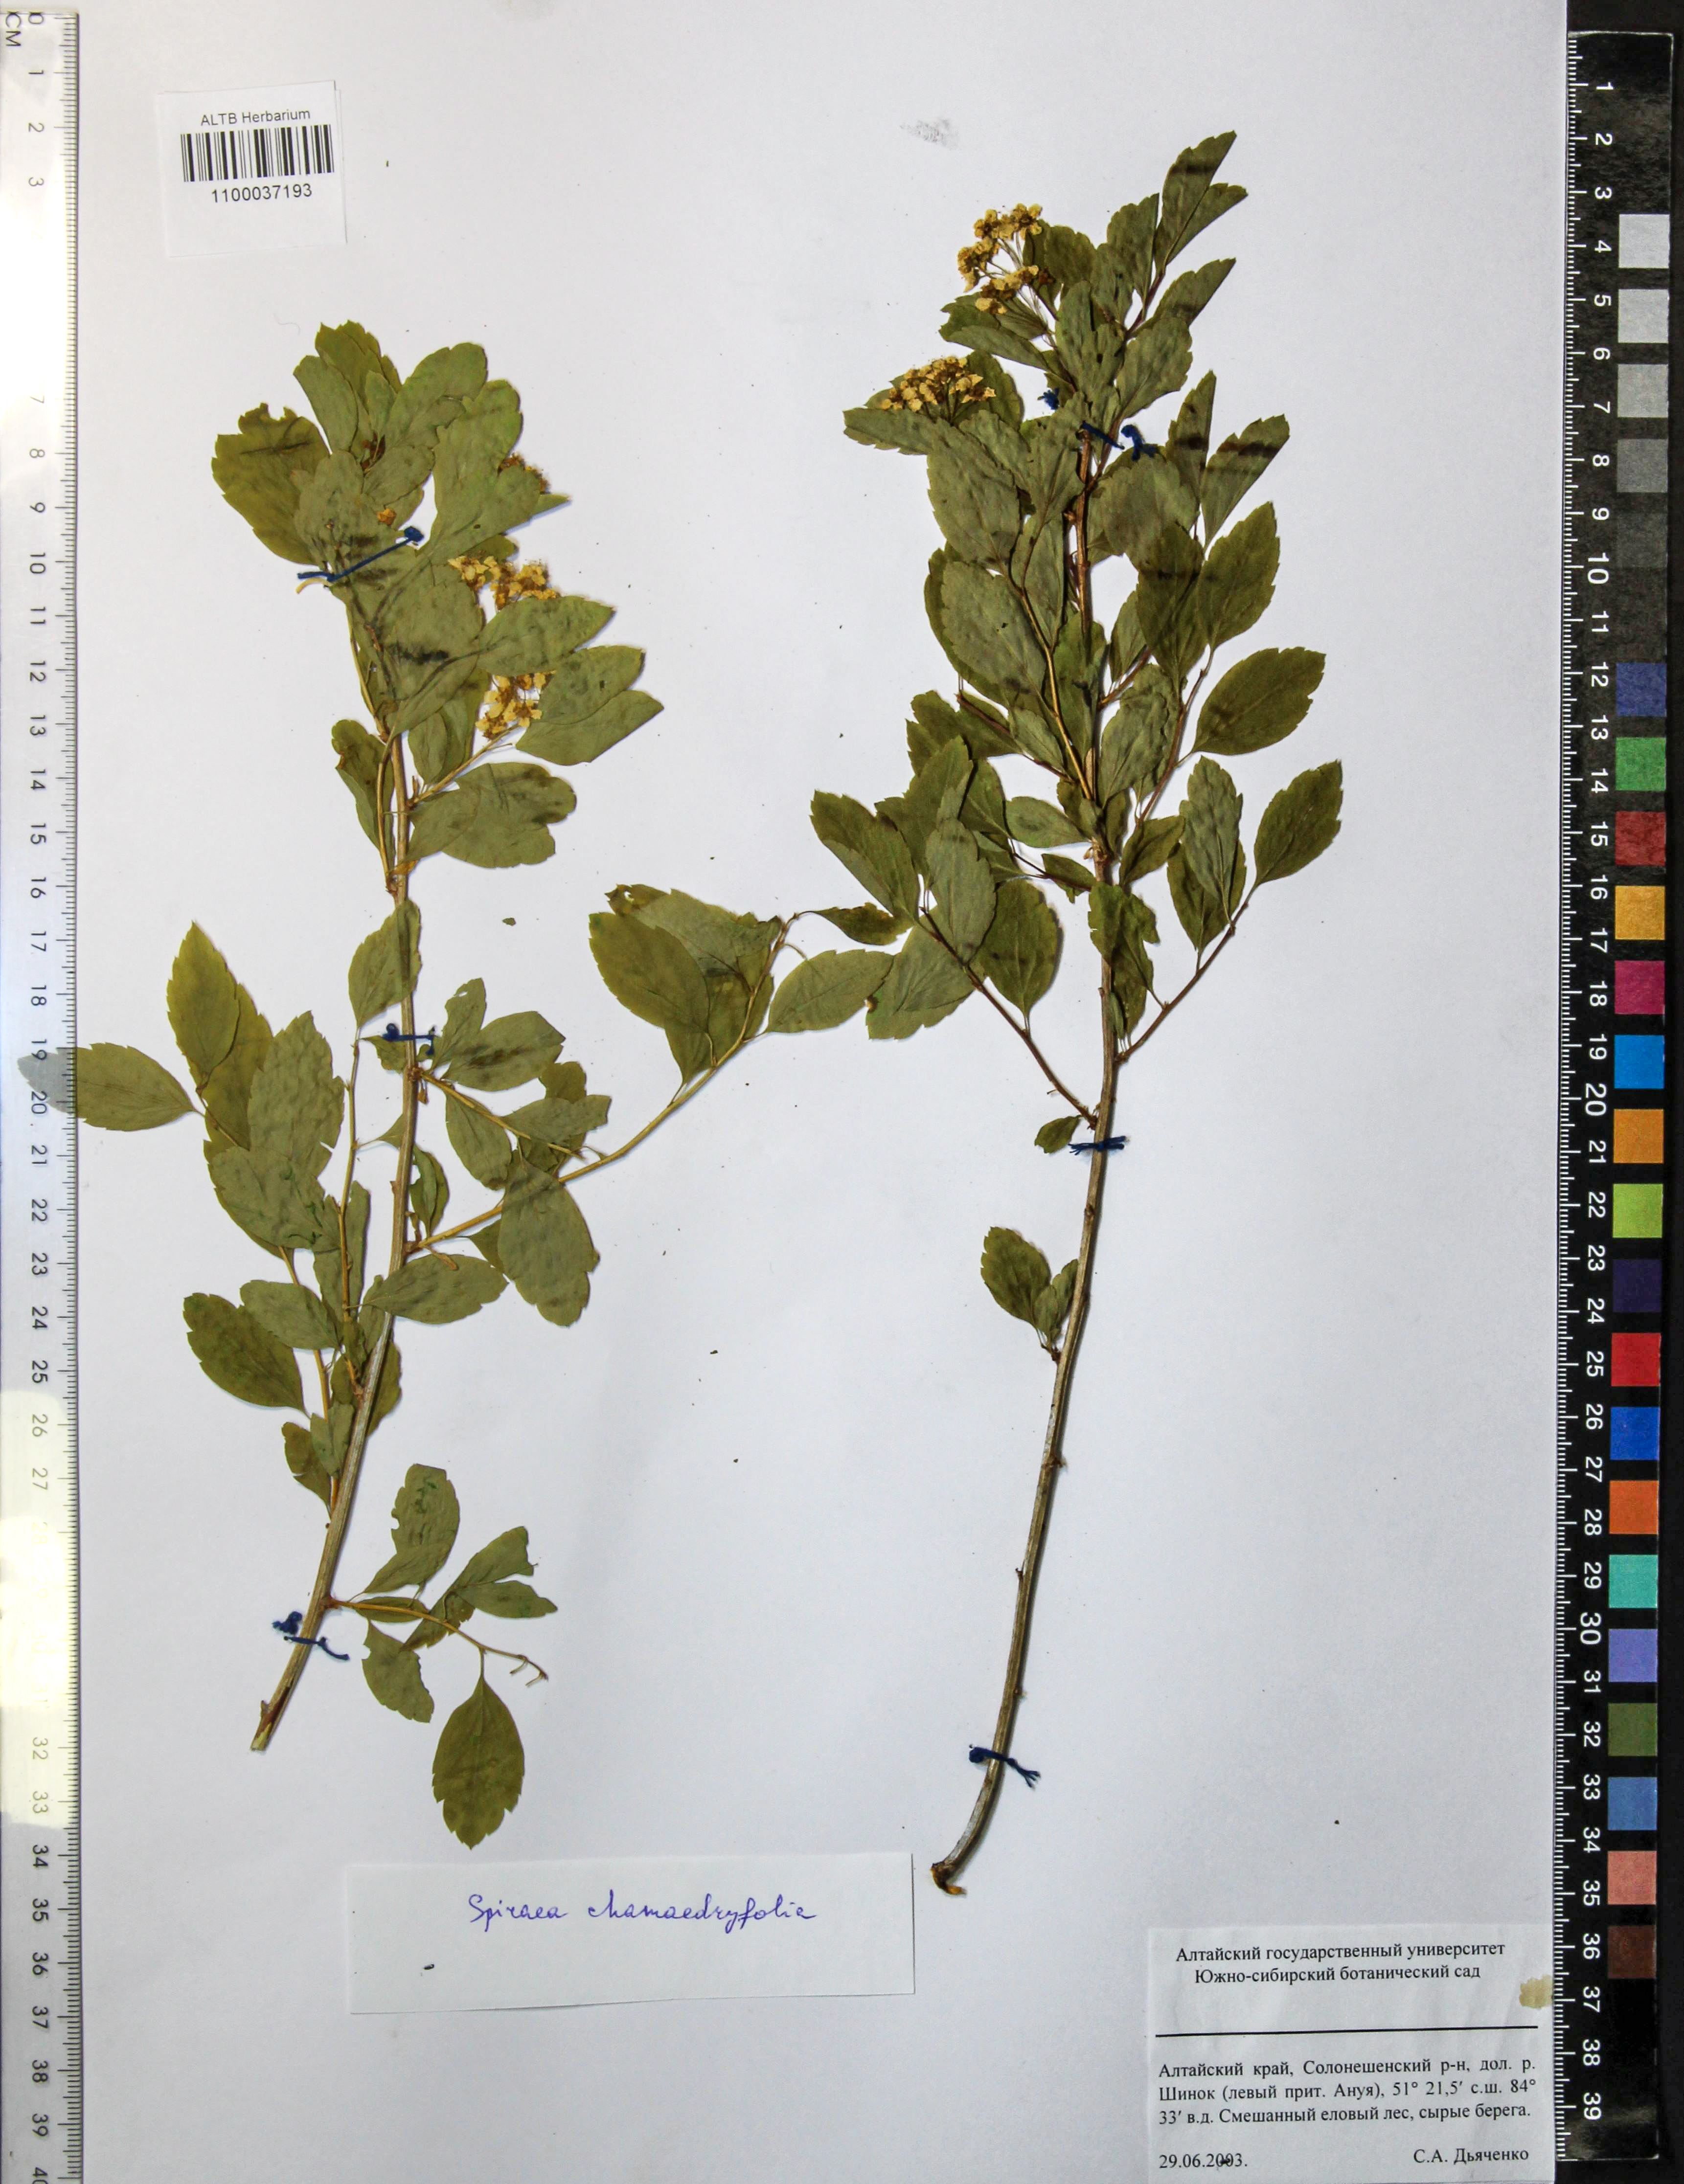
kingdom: Plantae
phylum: Tracheophyta
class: Magnoliopsida
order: Rosales
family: Rosaceae
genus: Spiraea
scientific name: Spiraea chamaedryfolia
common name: Elm-leaved spiraea
